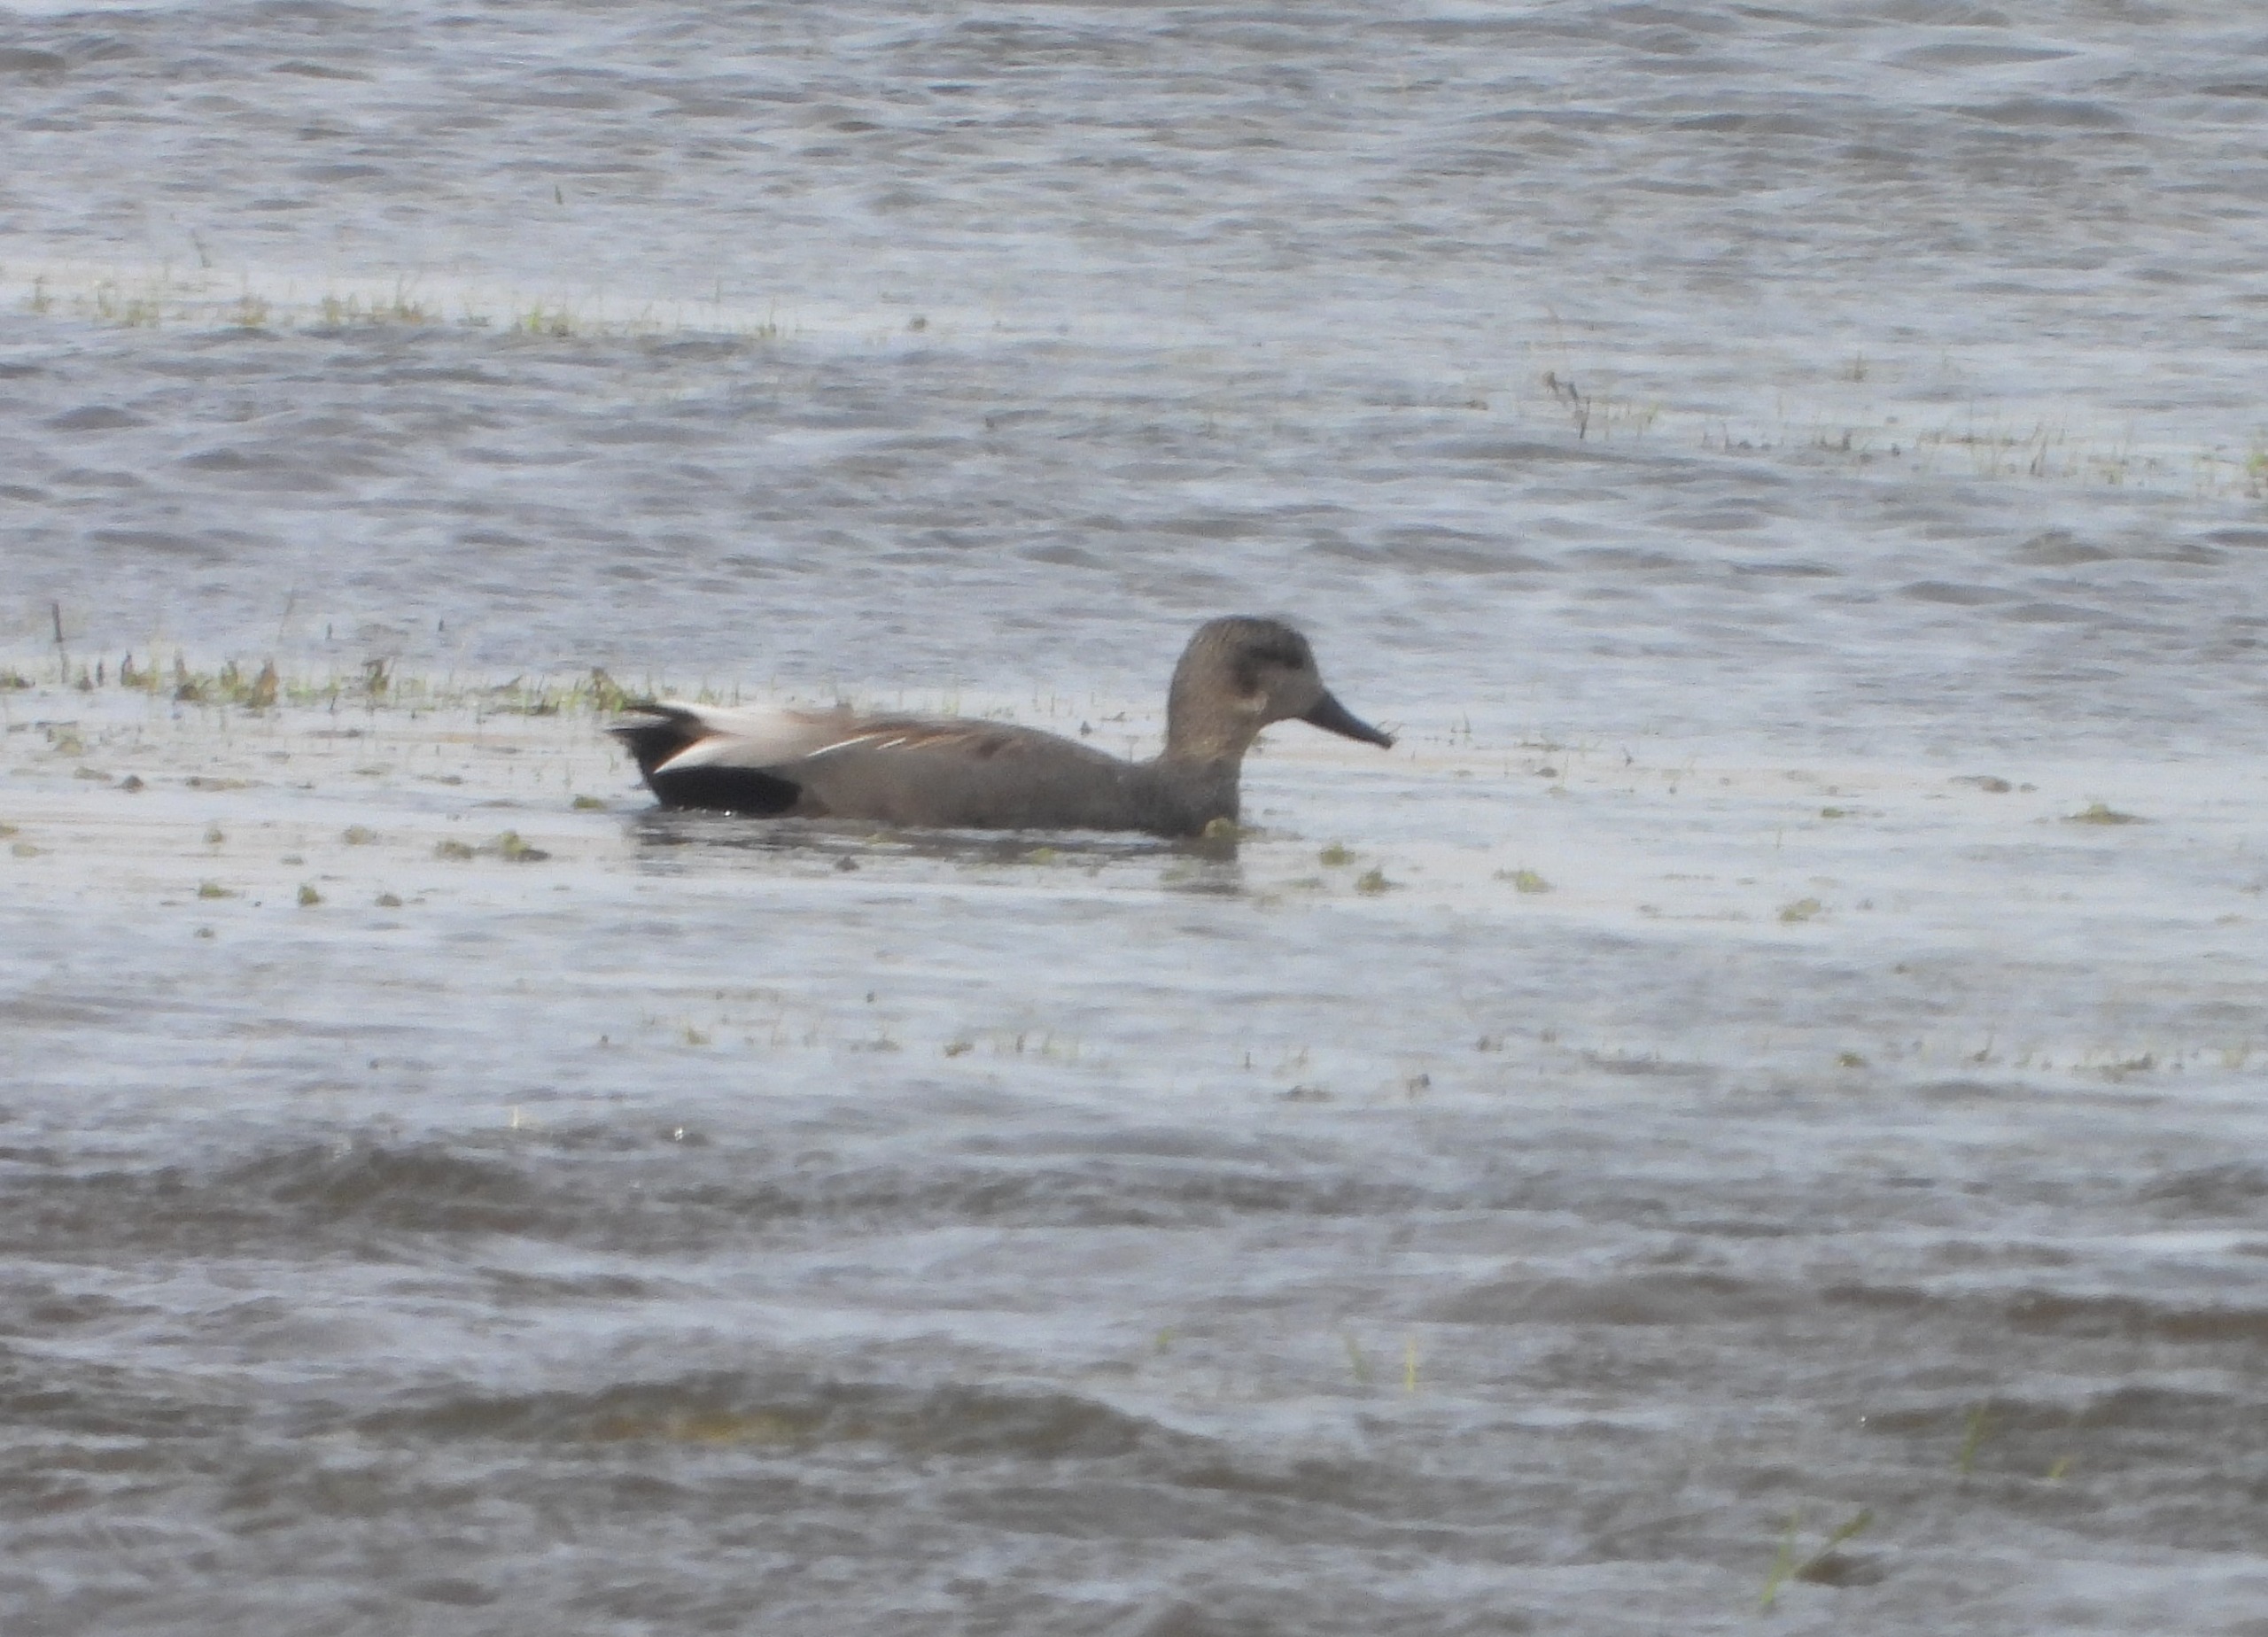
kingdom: Animalia
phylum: Chordata
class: Aves
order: Anseriformes
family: Anatidae
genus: Mareca
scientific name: Mareca strepera
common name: Knarand
